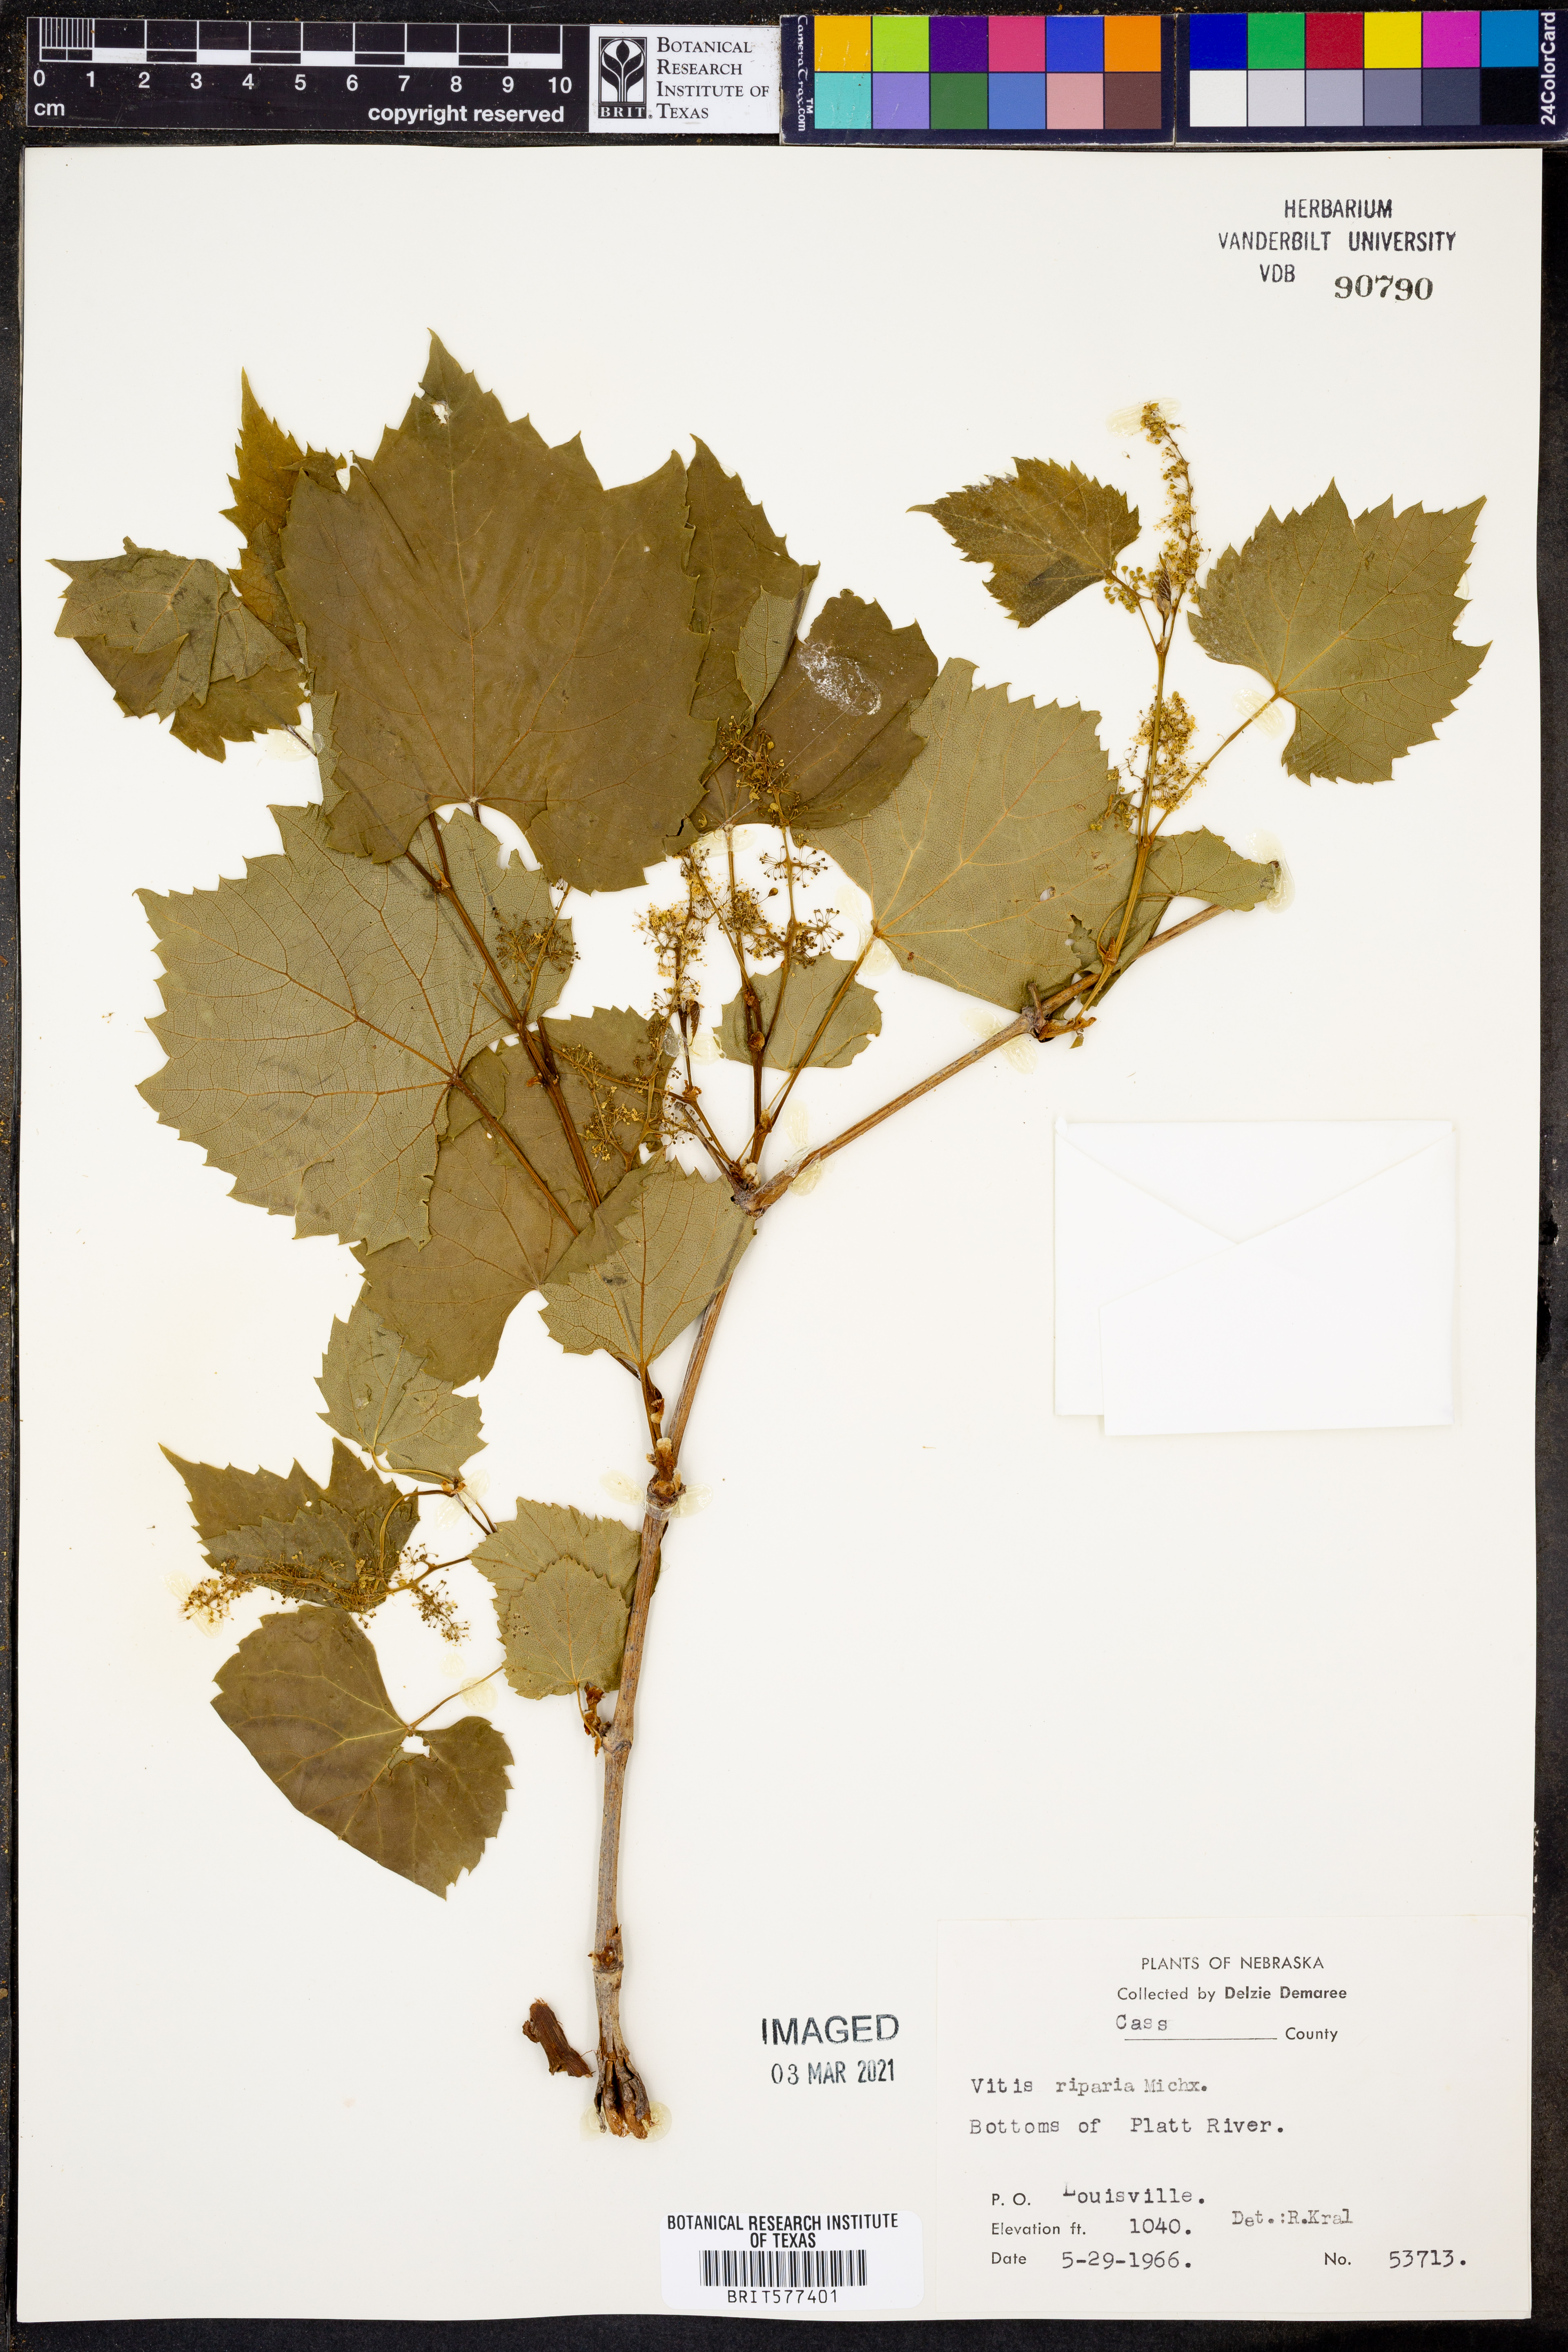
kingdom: Plantae
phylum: Tracheophyta
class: Magnoliopsida
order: Vitales
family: Vitaceae
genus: Vitis
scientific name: Vitis riparia
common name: Frost grape
